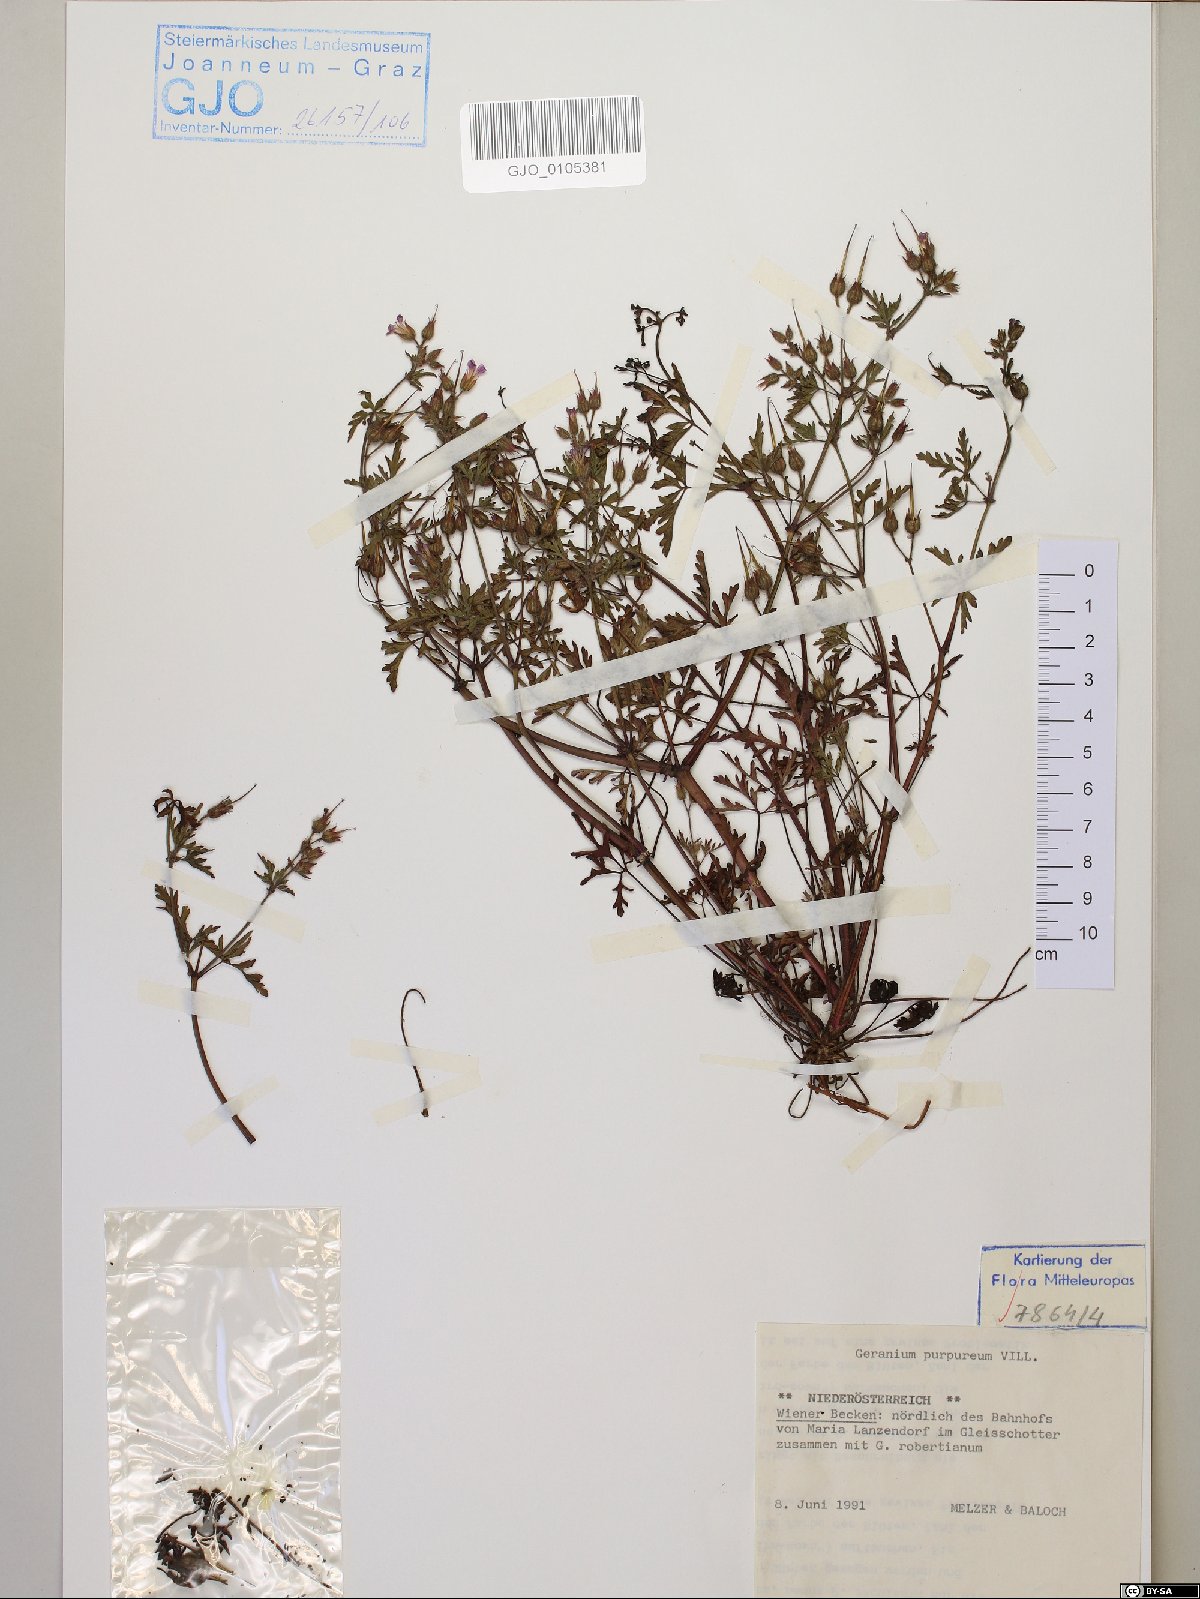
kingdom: Plantae
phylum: Tracheophyta
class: Magnoliopsida
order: Geraniales
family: Geraniaceae
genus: Geranium
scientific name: Geranium purpureum
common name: Little-robin
